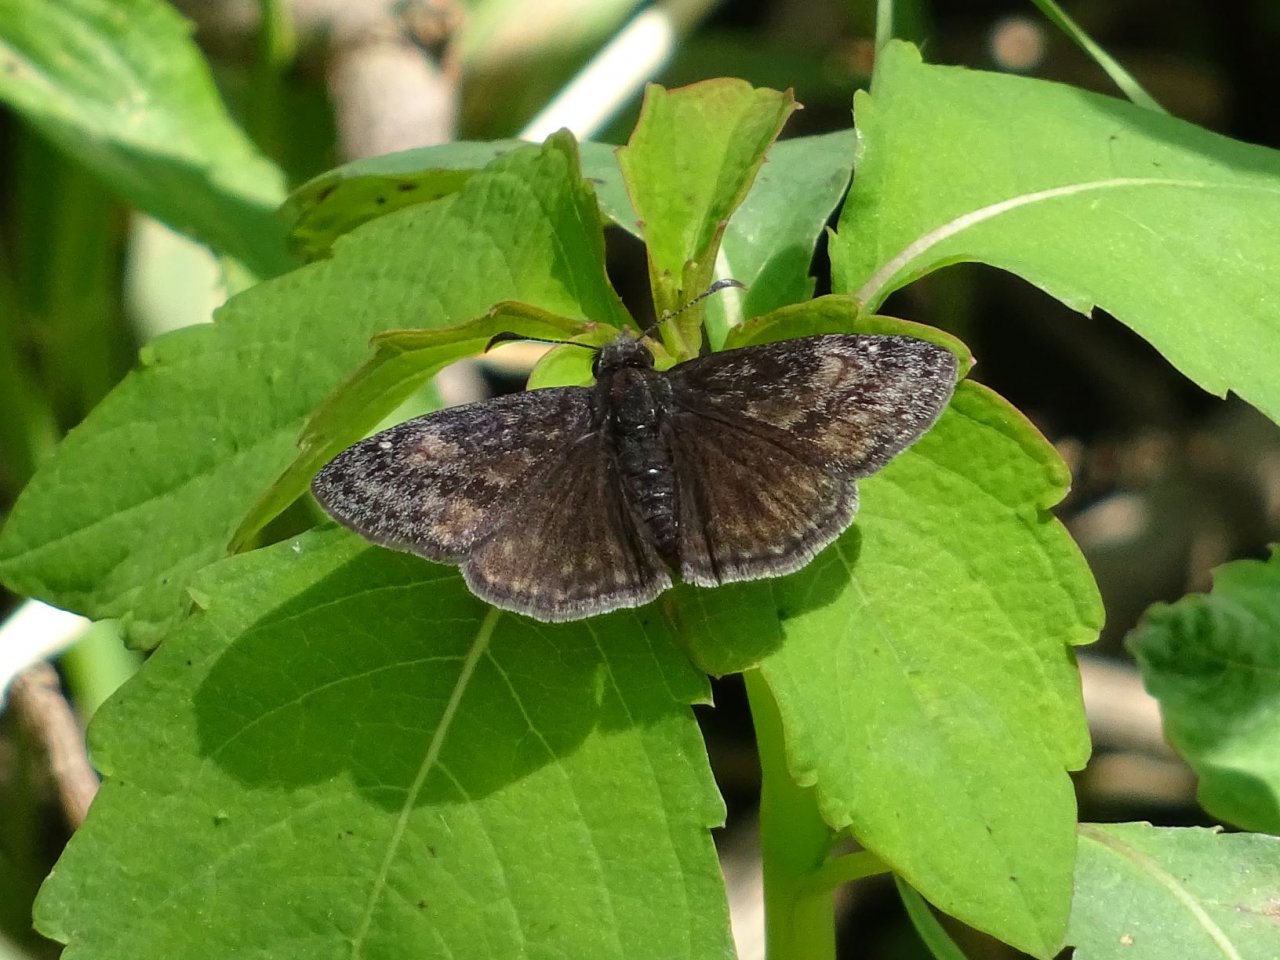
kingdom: Animalia
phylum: Arthropoda
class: Insecta
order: Lepidoptera
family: Hesperiidae
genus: Erynnis
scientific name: Erynnis
